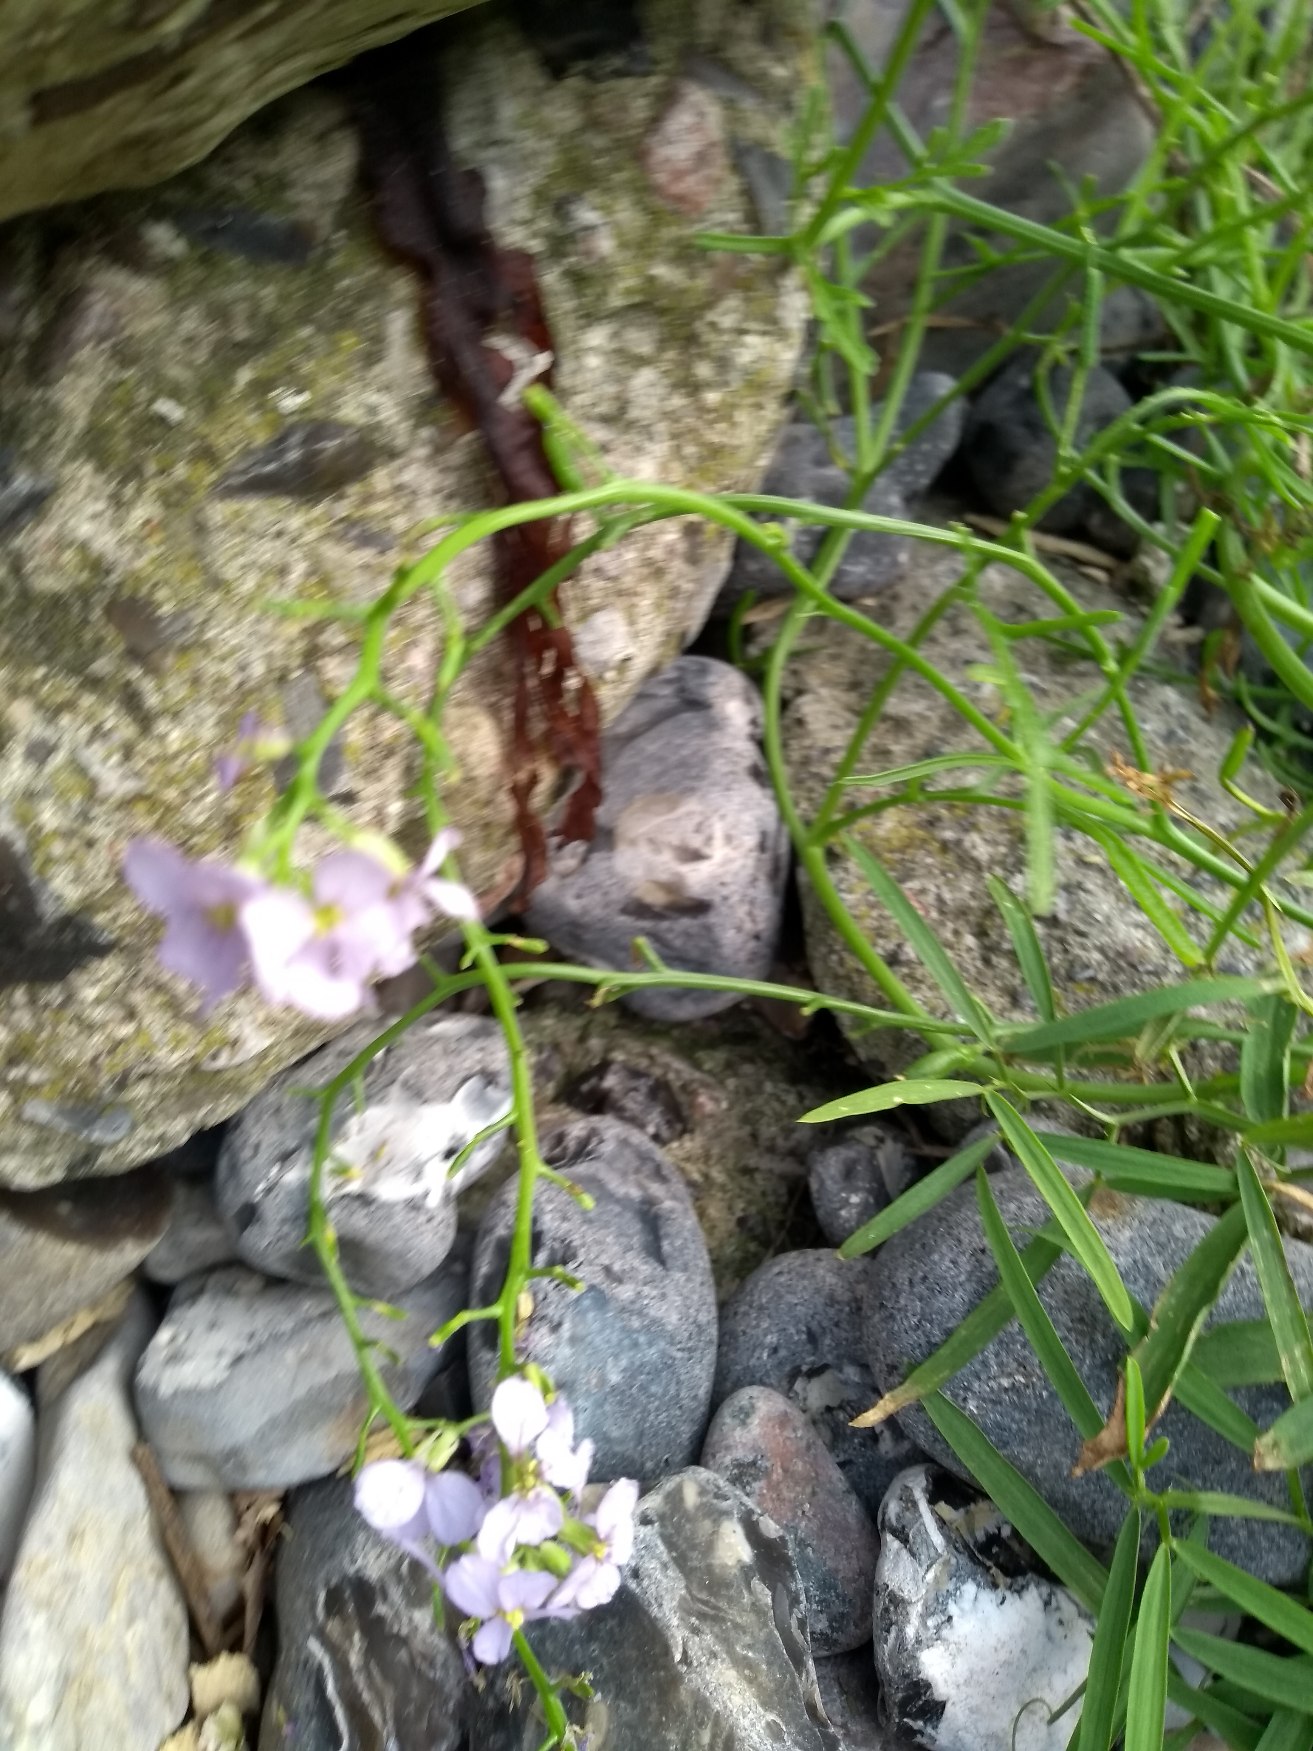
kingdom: Plantae
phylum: Tracheophyta
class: Magnoliopsida
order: Brassicales
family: Brassicaceae
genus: Cakile
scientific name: Cakile maritima
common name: Strandsennep
